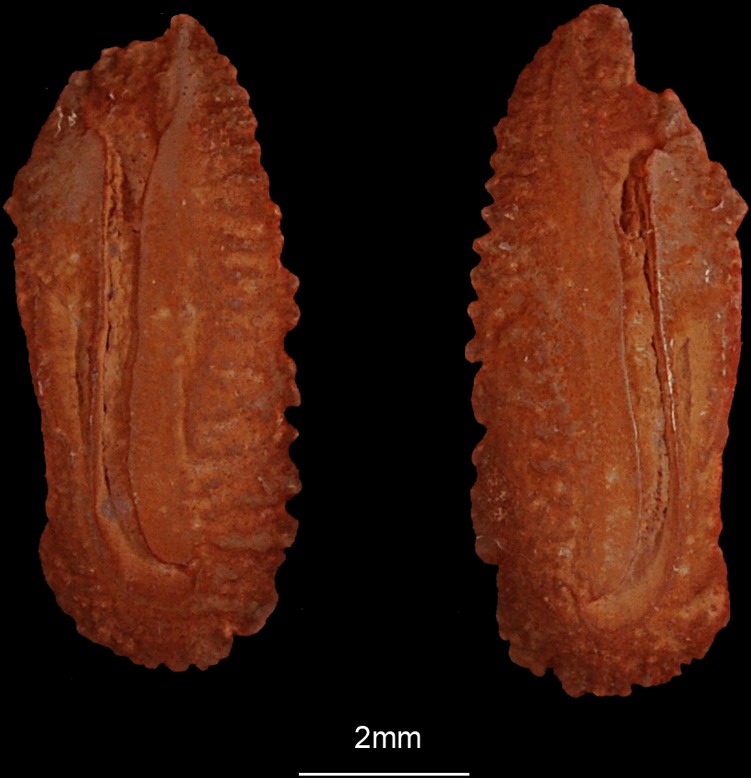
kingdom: Animalia
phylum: Chordata
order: Perciformes
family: Carangidae
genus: Atule
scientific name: Atule mate
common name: Yellowtail scad
